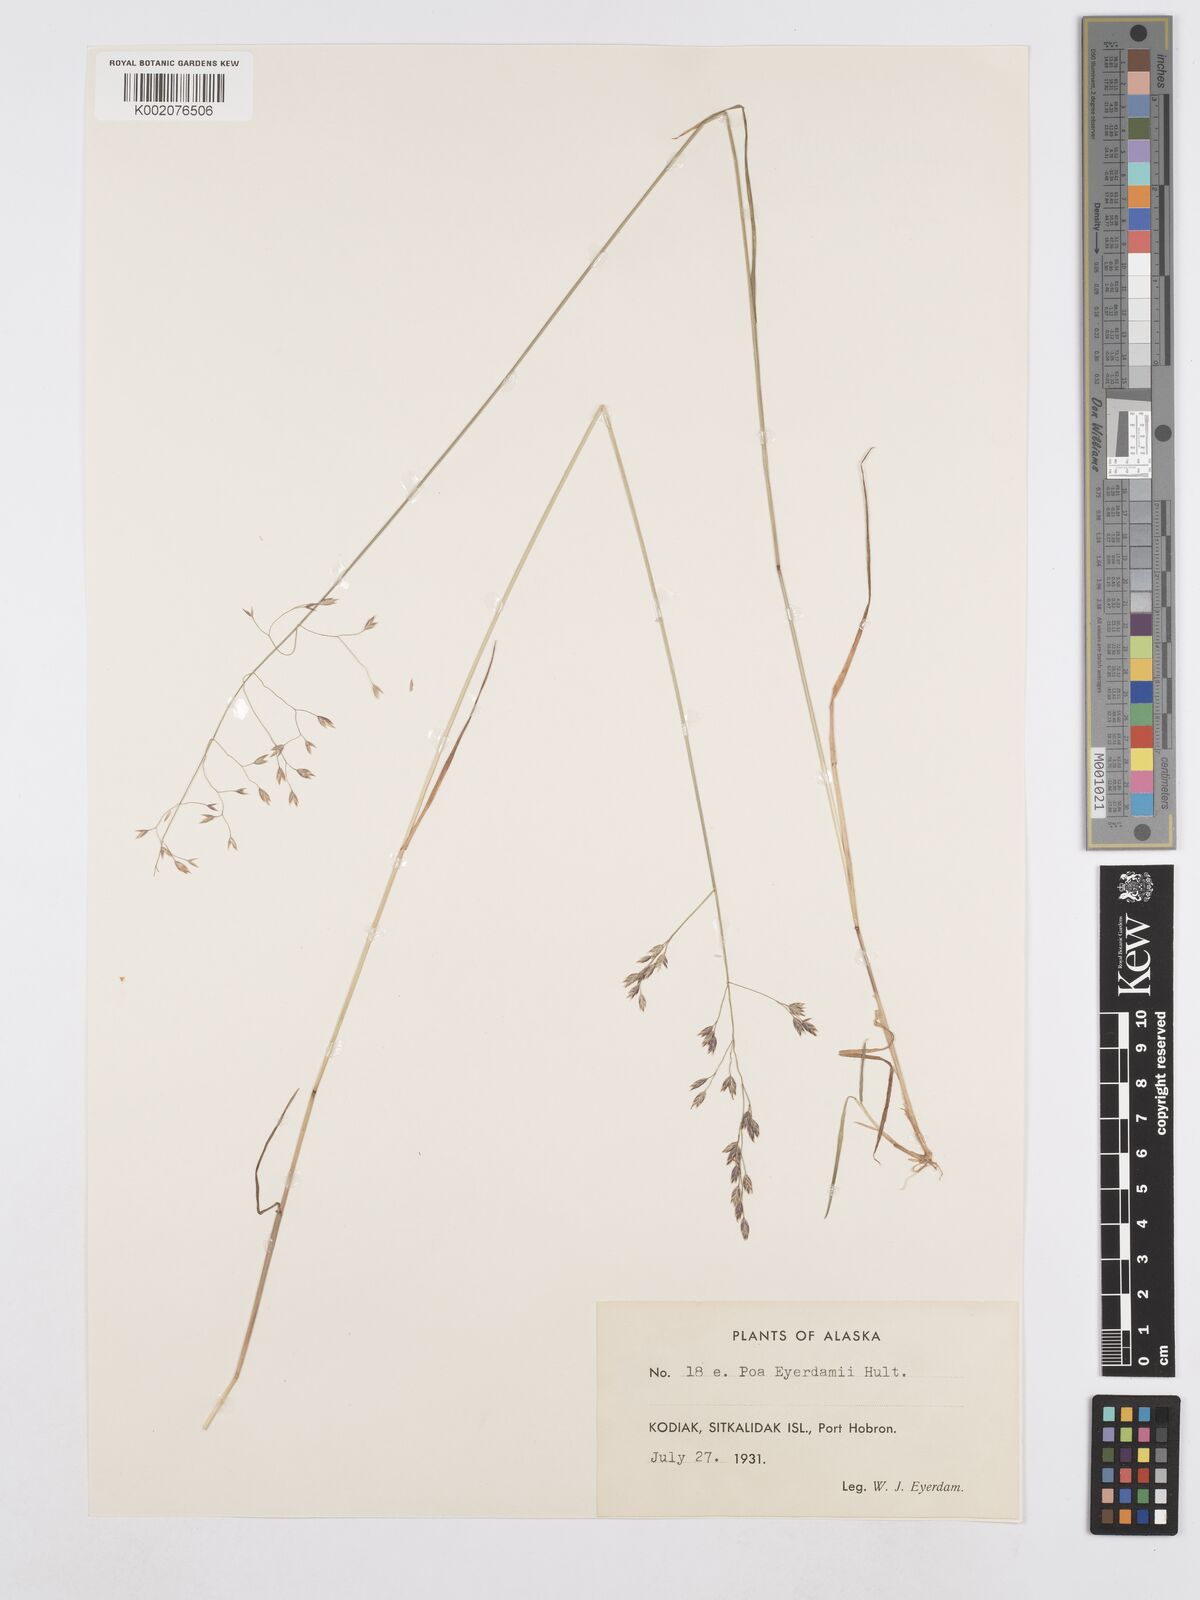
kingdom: Plantae
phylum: Tracheophyta
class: Liliopsida
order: Poales
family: Poaceae
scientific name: Poaceae
